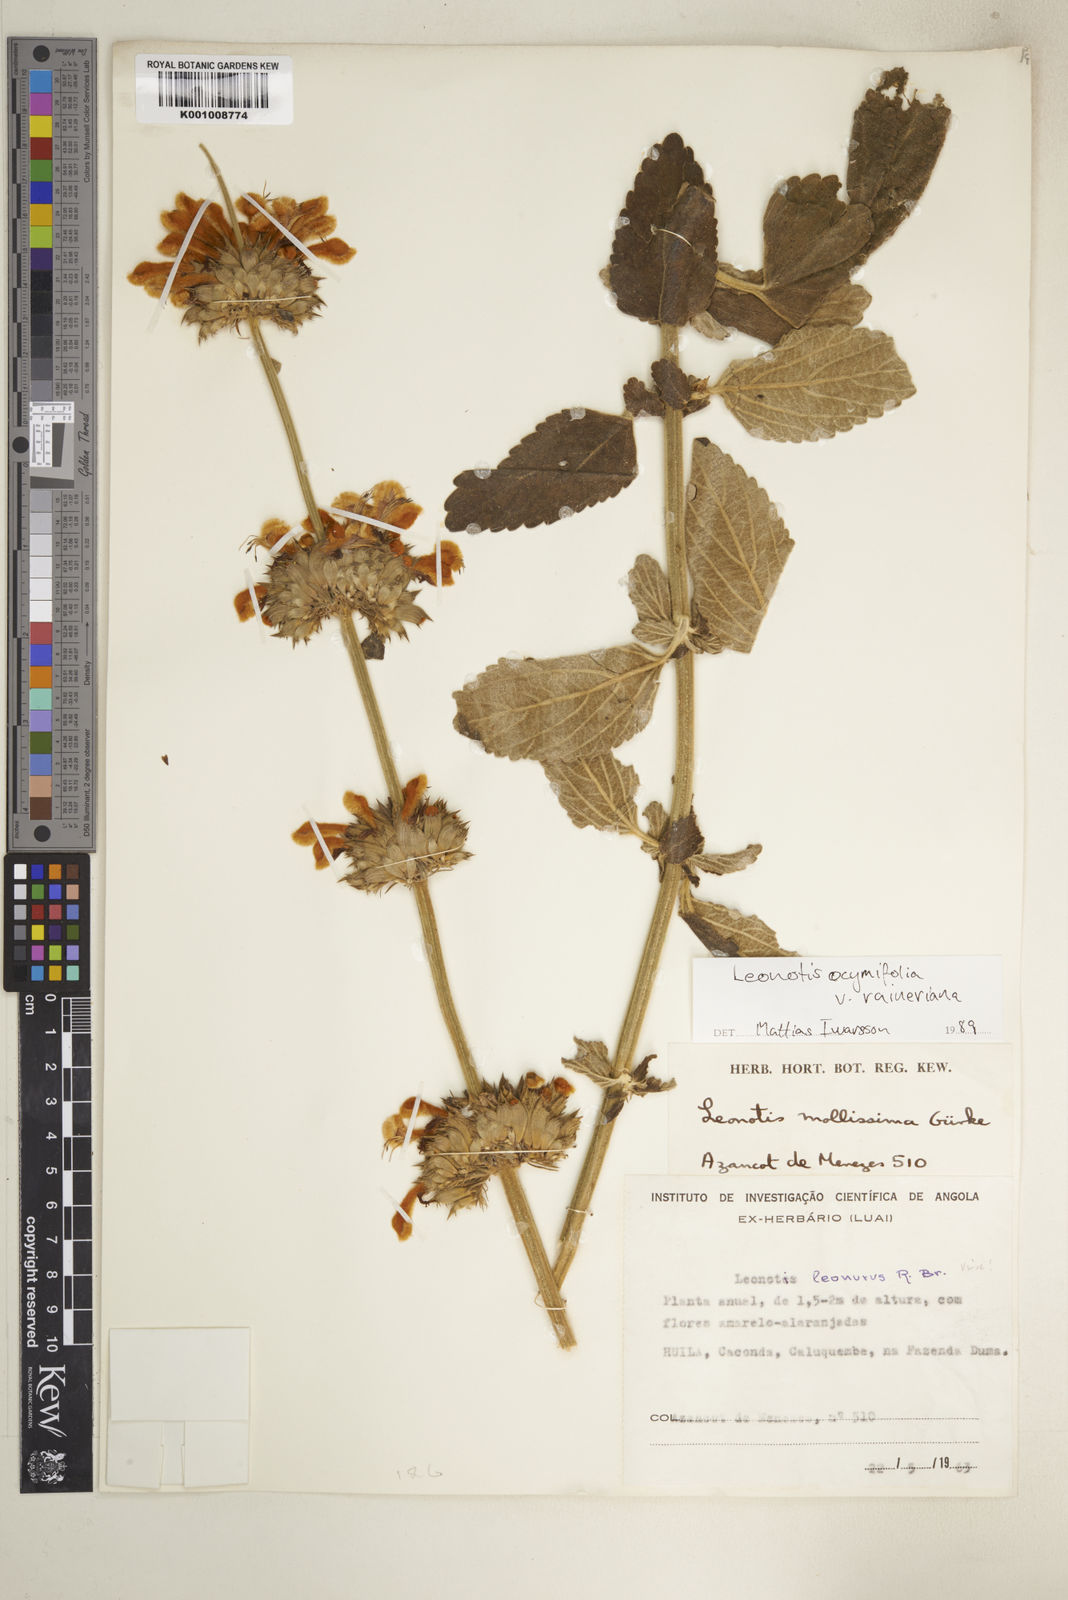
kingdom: Plantae
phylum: Tracheophyta
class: Magnoliopsida
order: Lamiales
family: Lamiaceae
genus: Leonotis
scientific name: Leonotis ocymifolia
